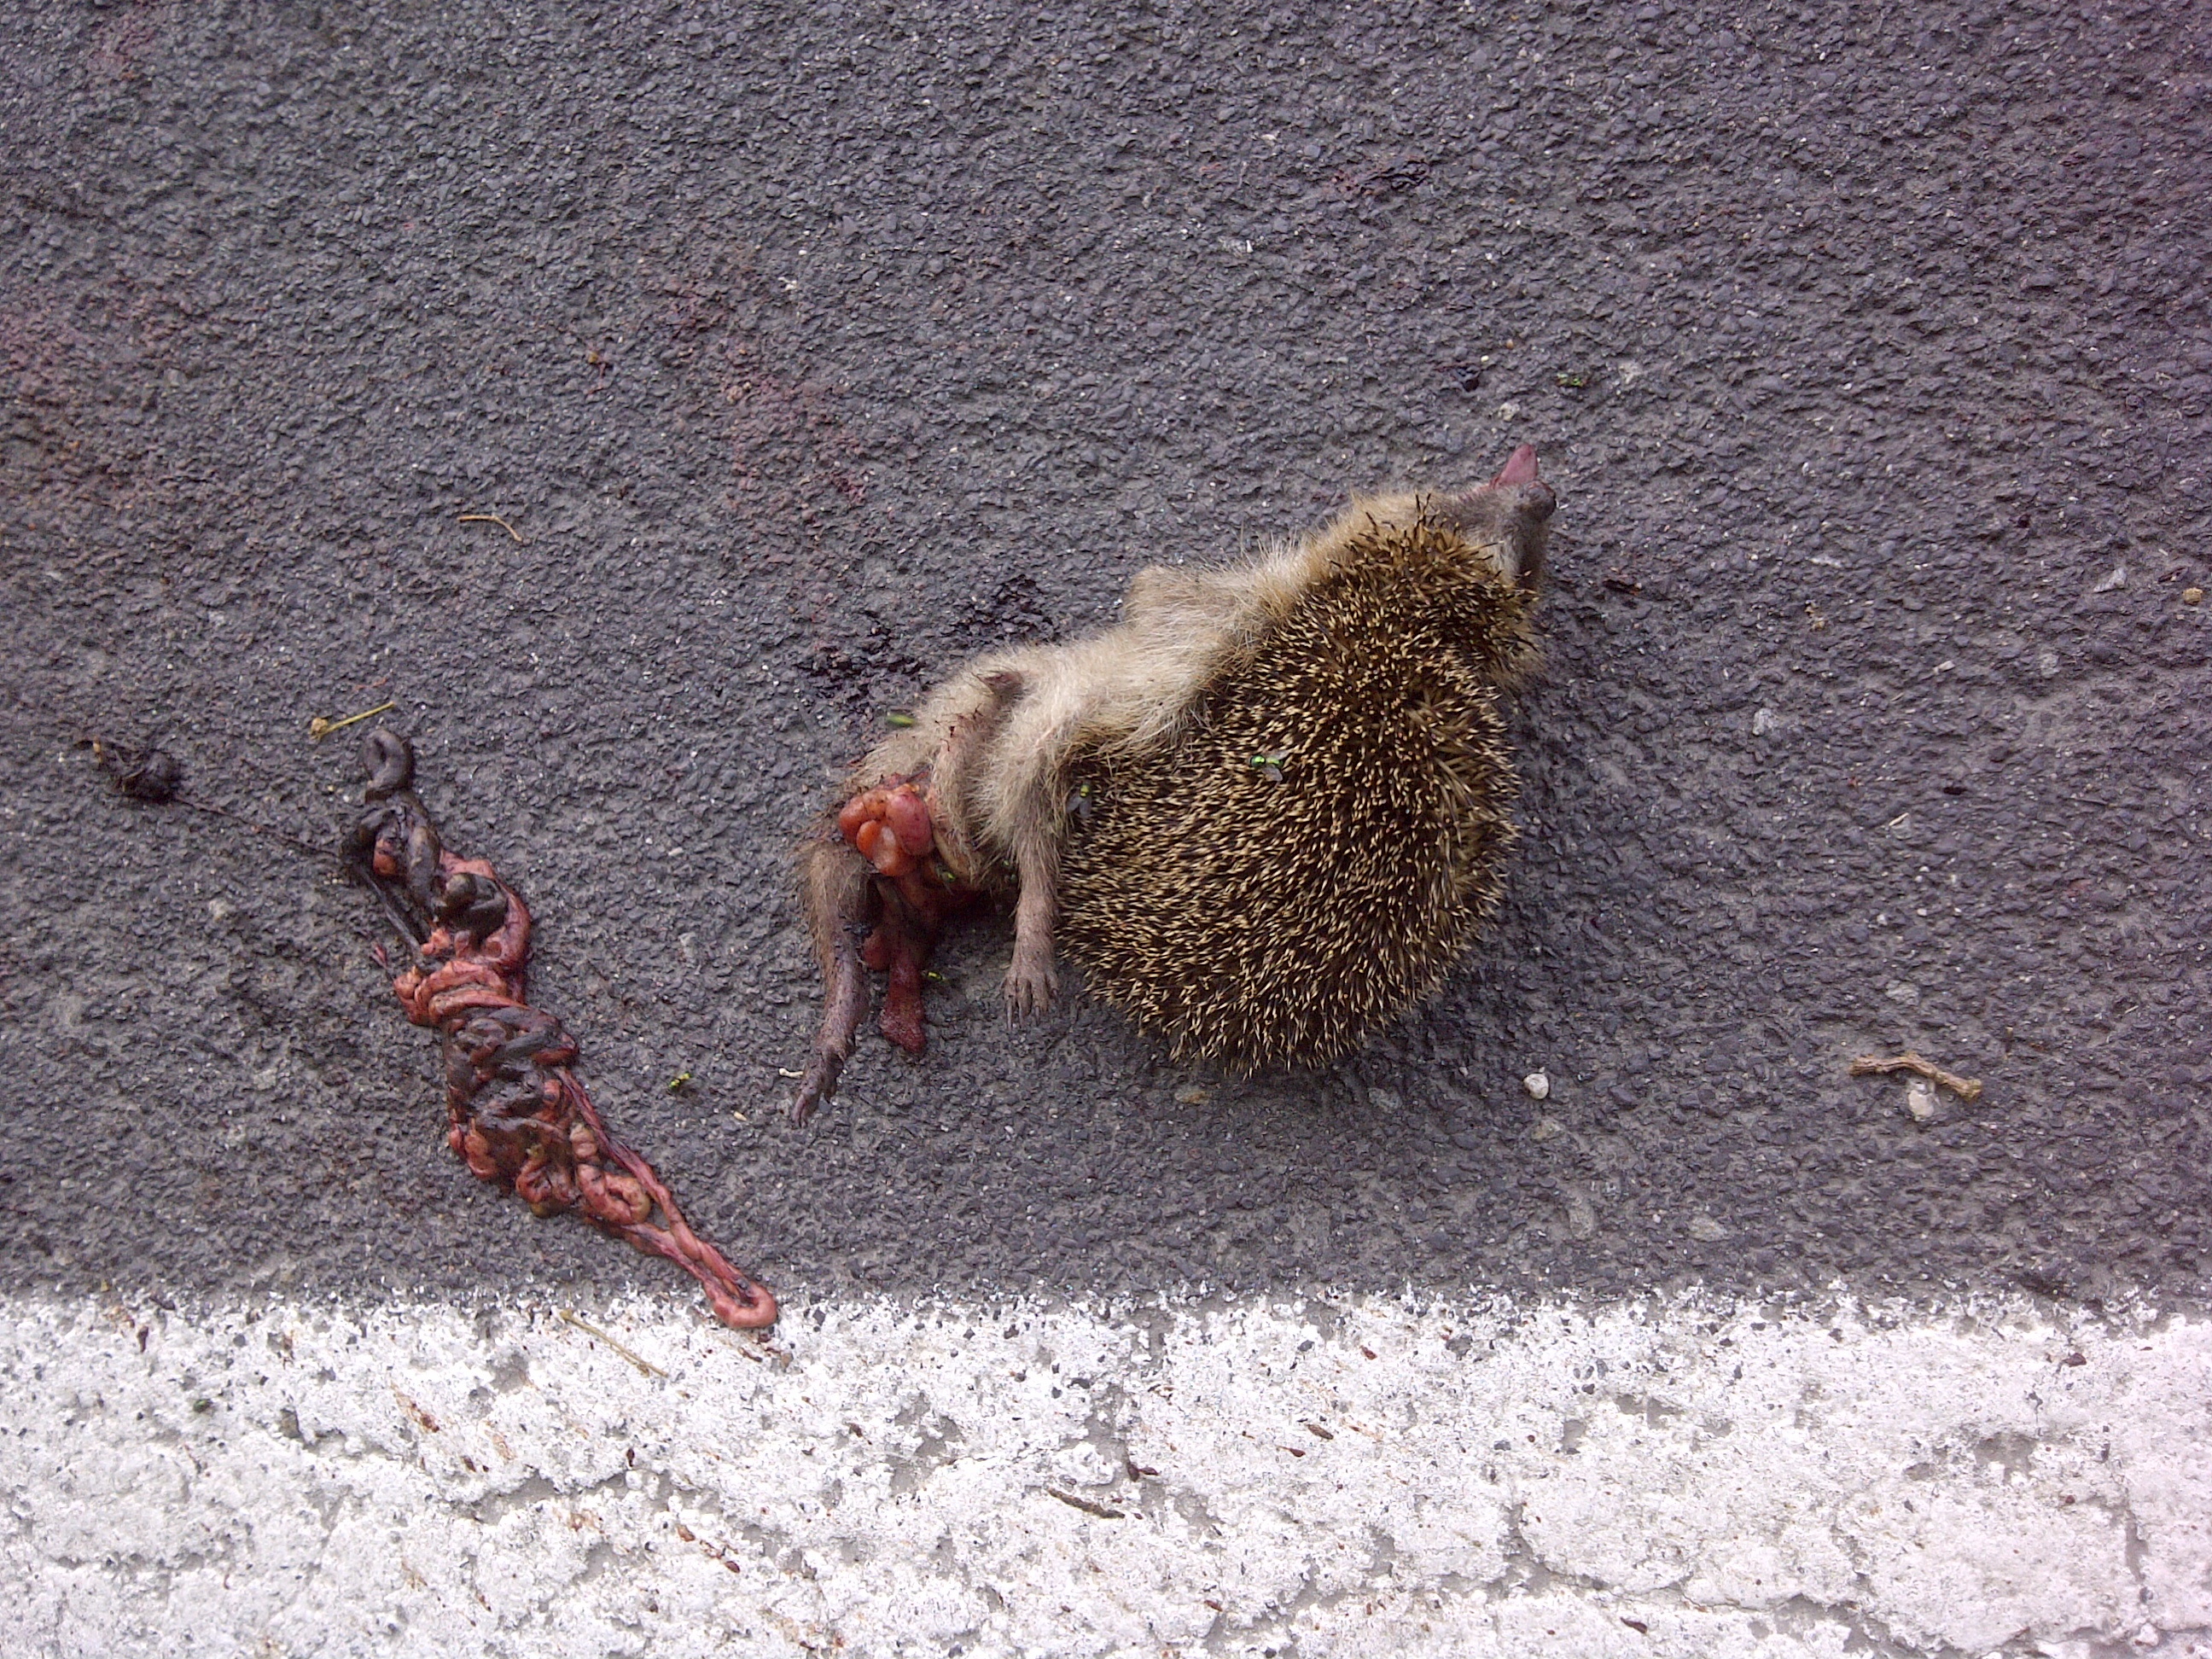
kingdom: Animalia
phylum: Chordata
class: Mammalia
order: Erinaceomorpha
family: Erinaceidae
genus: Erinaceus
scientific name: Erinaceus
